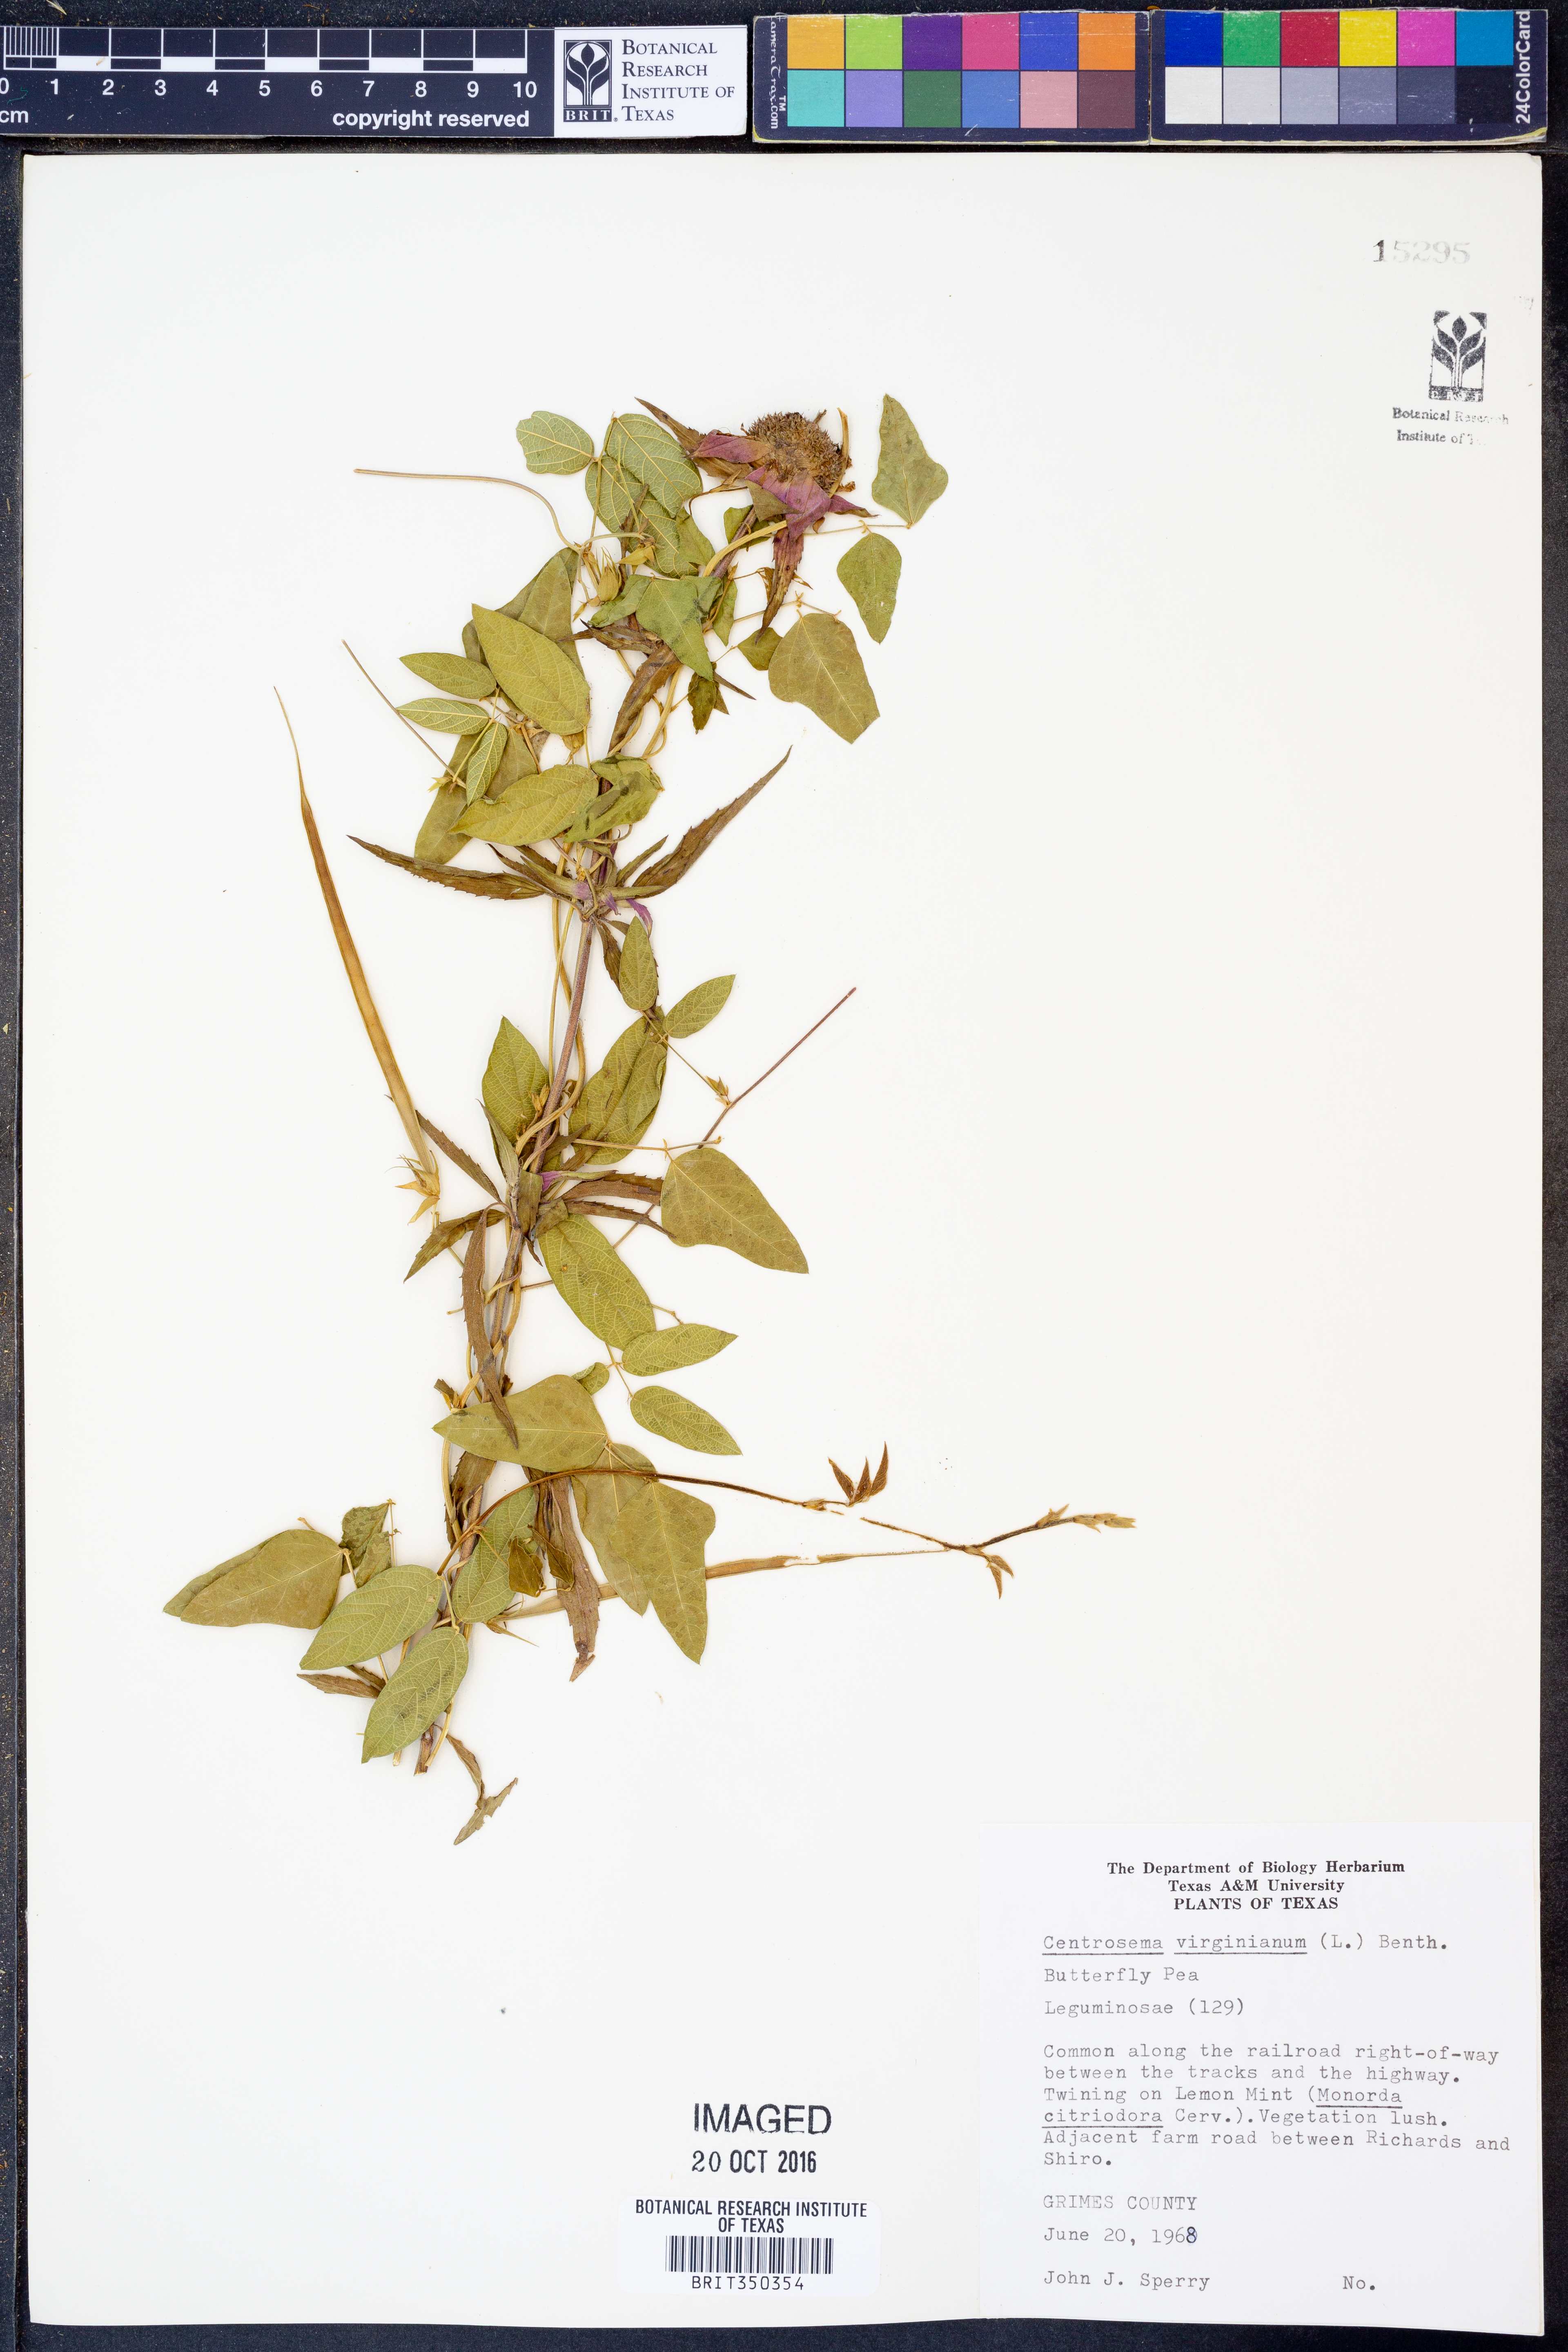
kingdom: Plantae
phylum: Tracheophyta
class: Magnoliopsida
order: Fabales
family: Fabaceae
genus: Centrosema
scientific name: Centrosema virginianum
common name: Butterfly-pea
